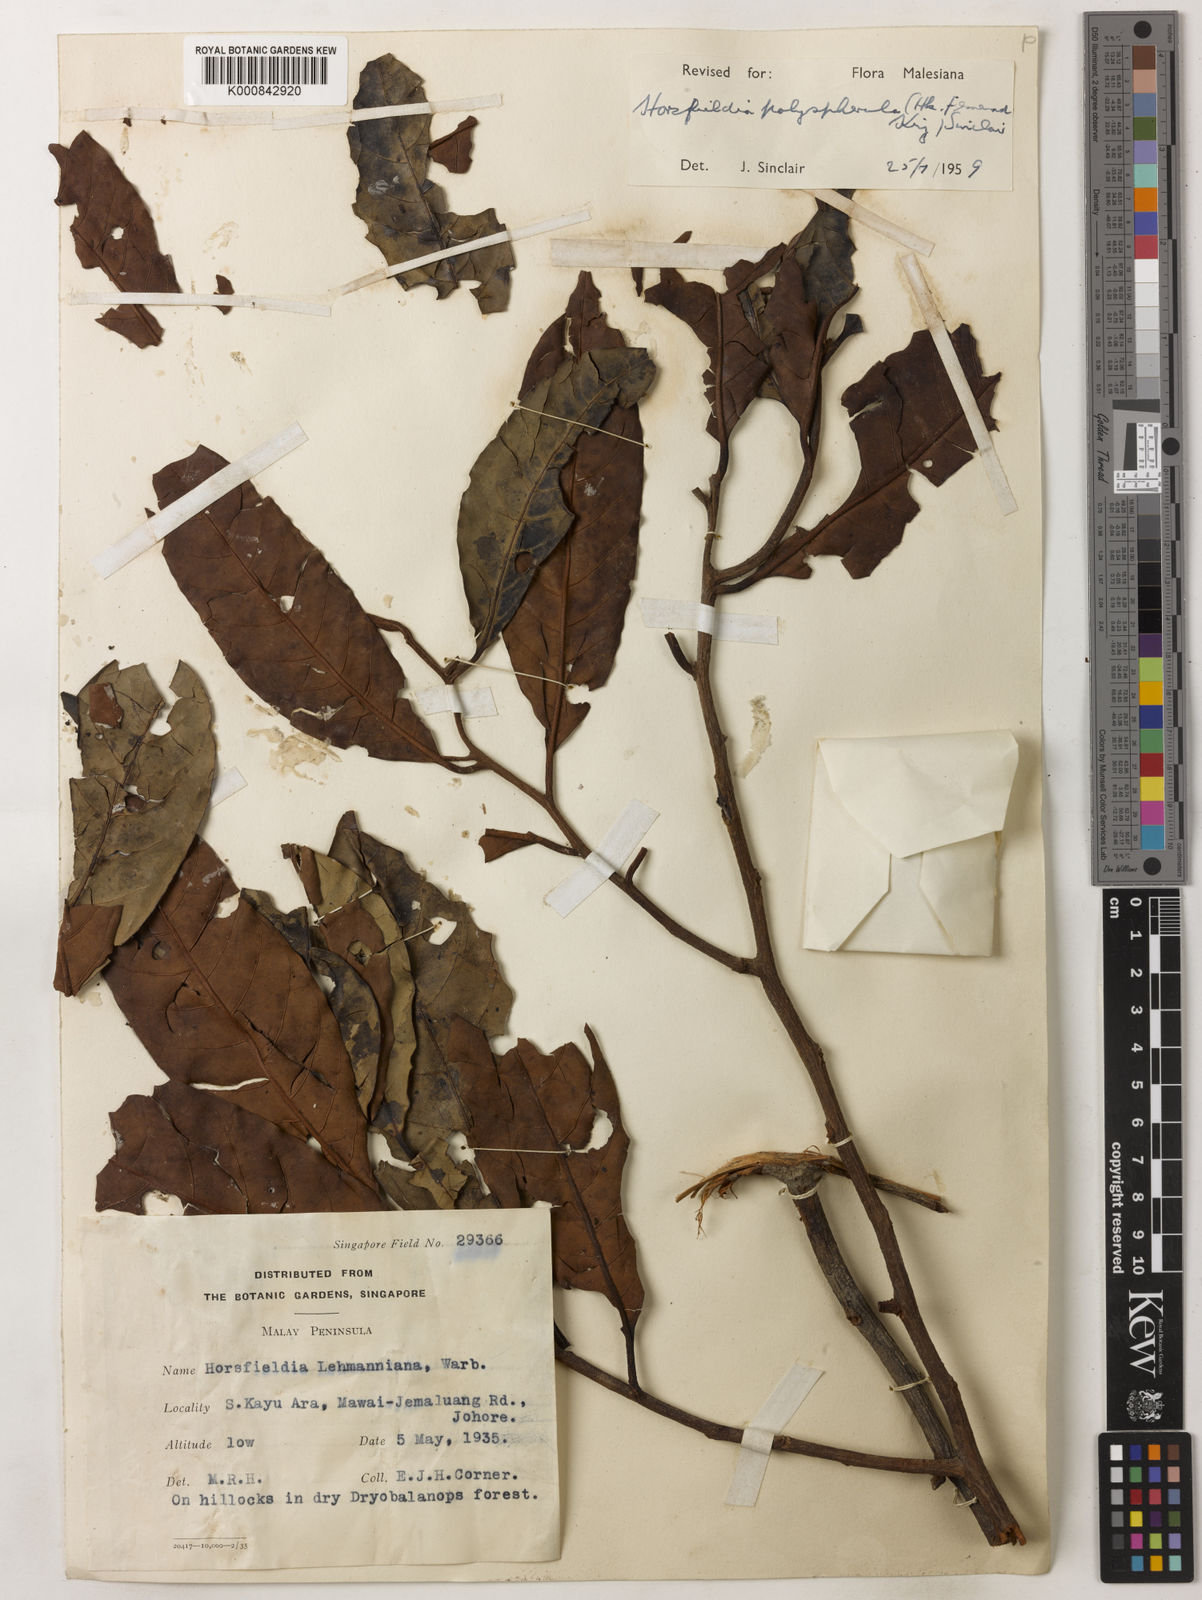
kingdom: Plantae
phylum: Tracheophyta
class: Magnoliopsida
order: Magnoliales
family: Myristicaceae
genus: Horsfieldia
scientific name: Horsfieldia
